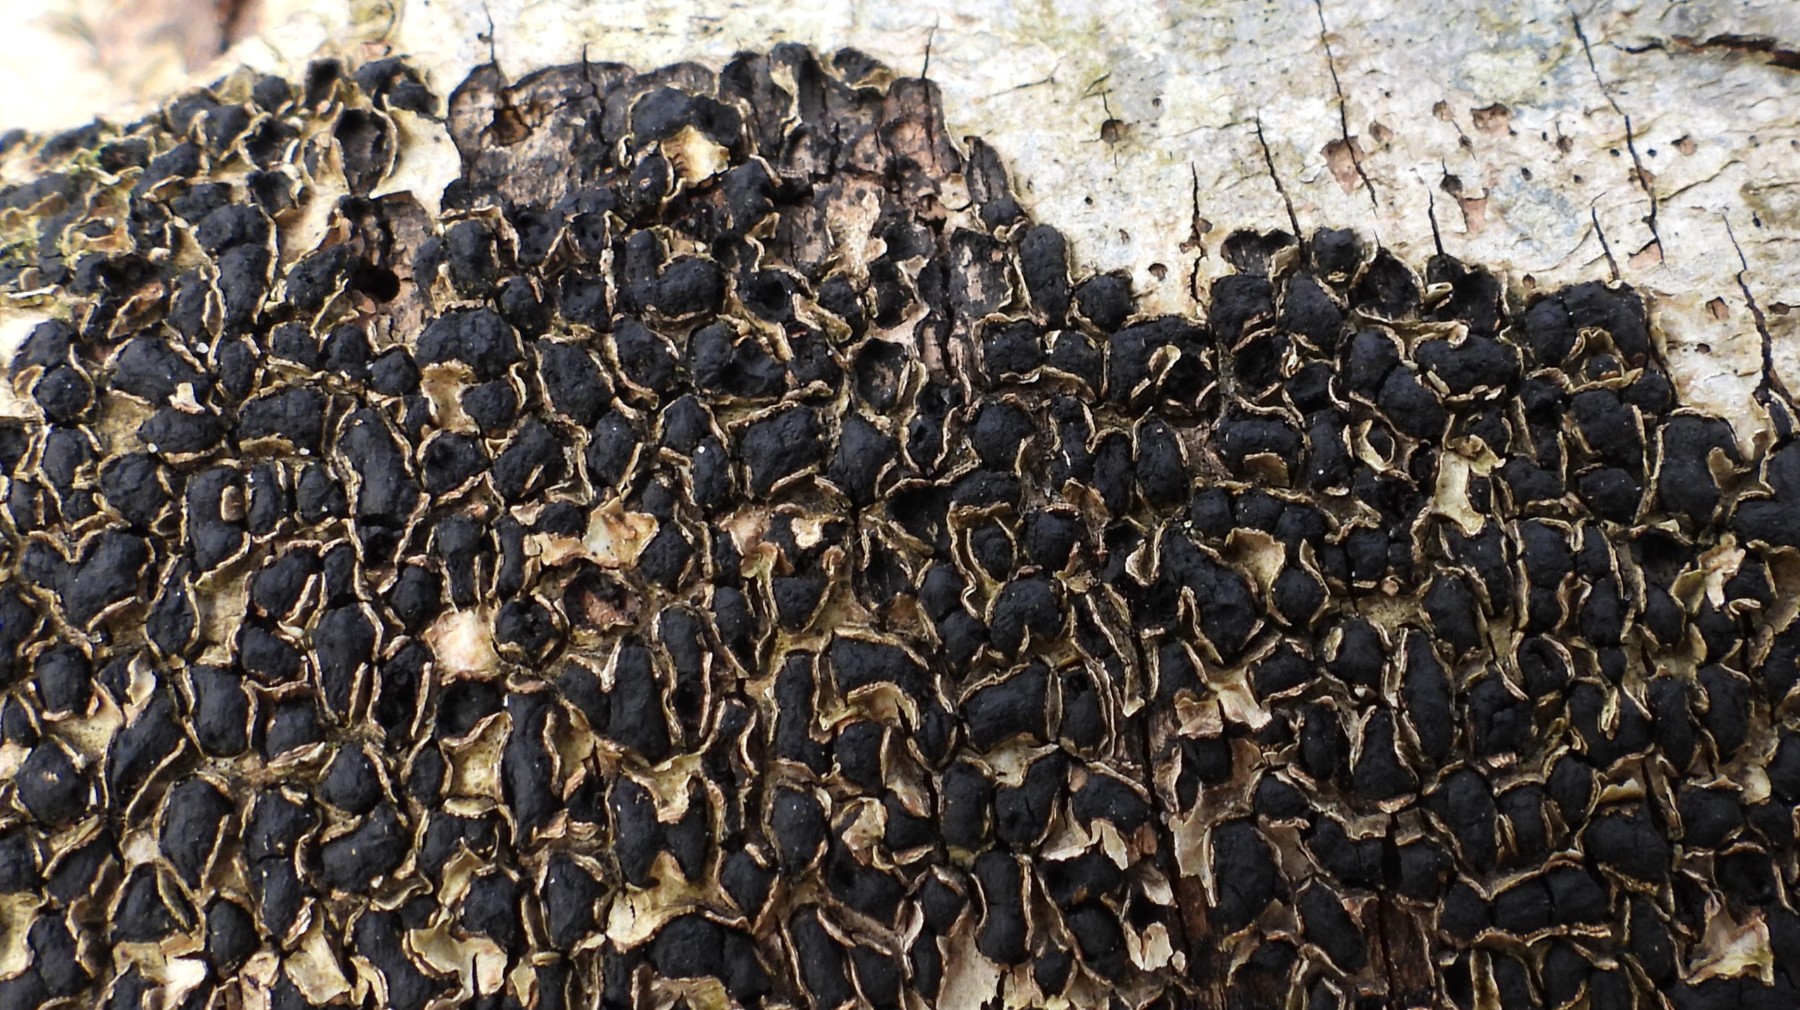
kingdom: Fungi
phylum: Ascomycota
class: Sordariomycetes
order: Xylariales
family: Melogrammataceae
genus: Melogramma
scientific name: Melogramma spiniferum
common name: bøgefod-kulhals
